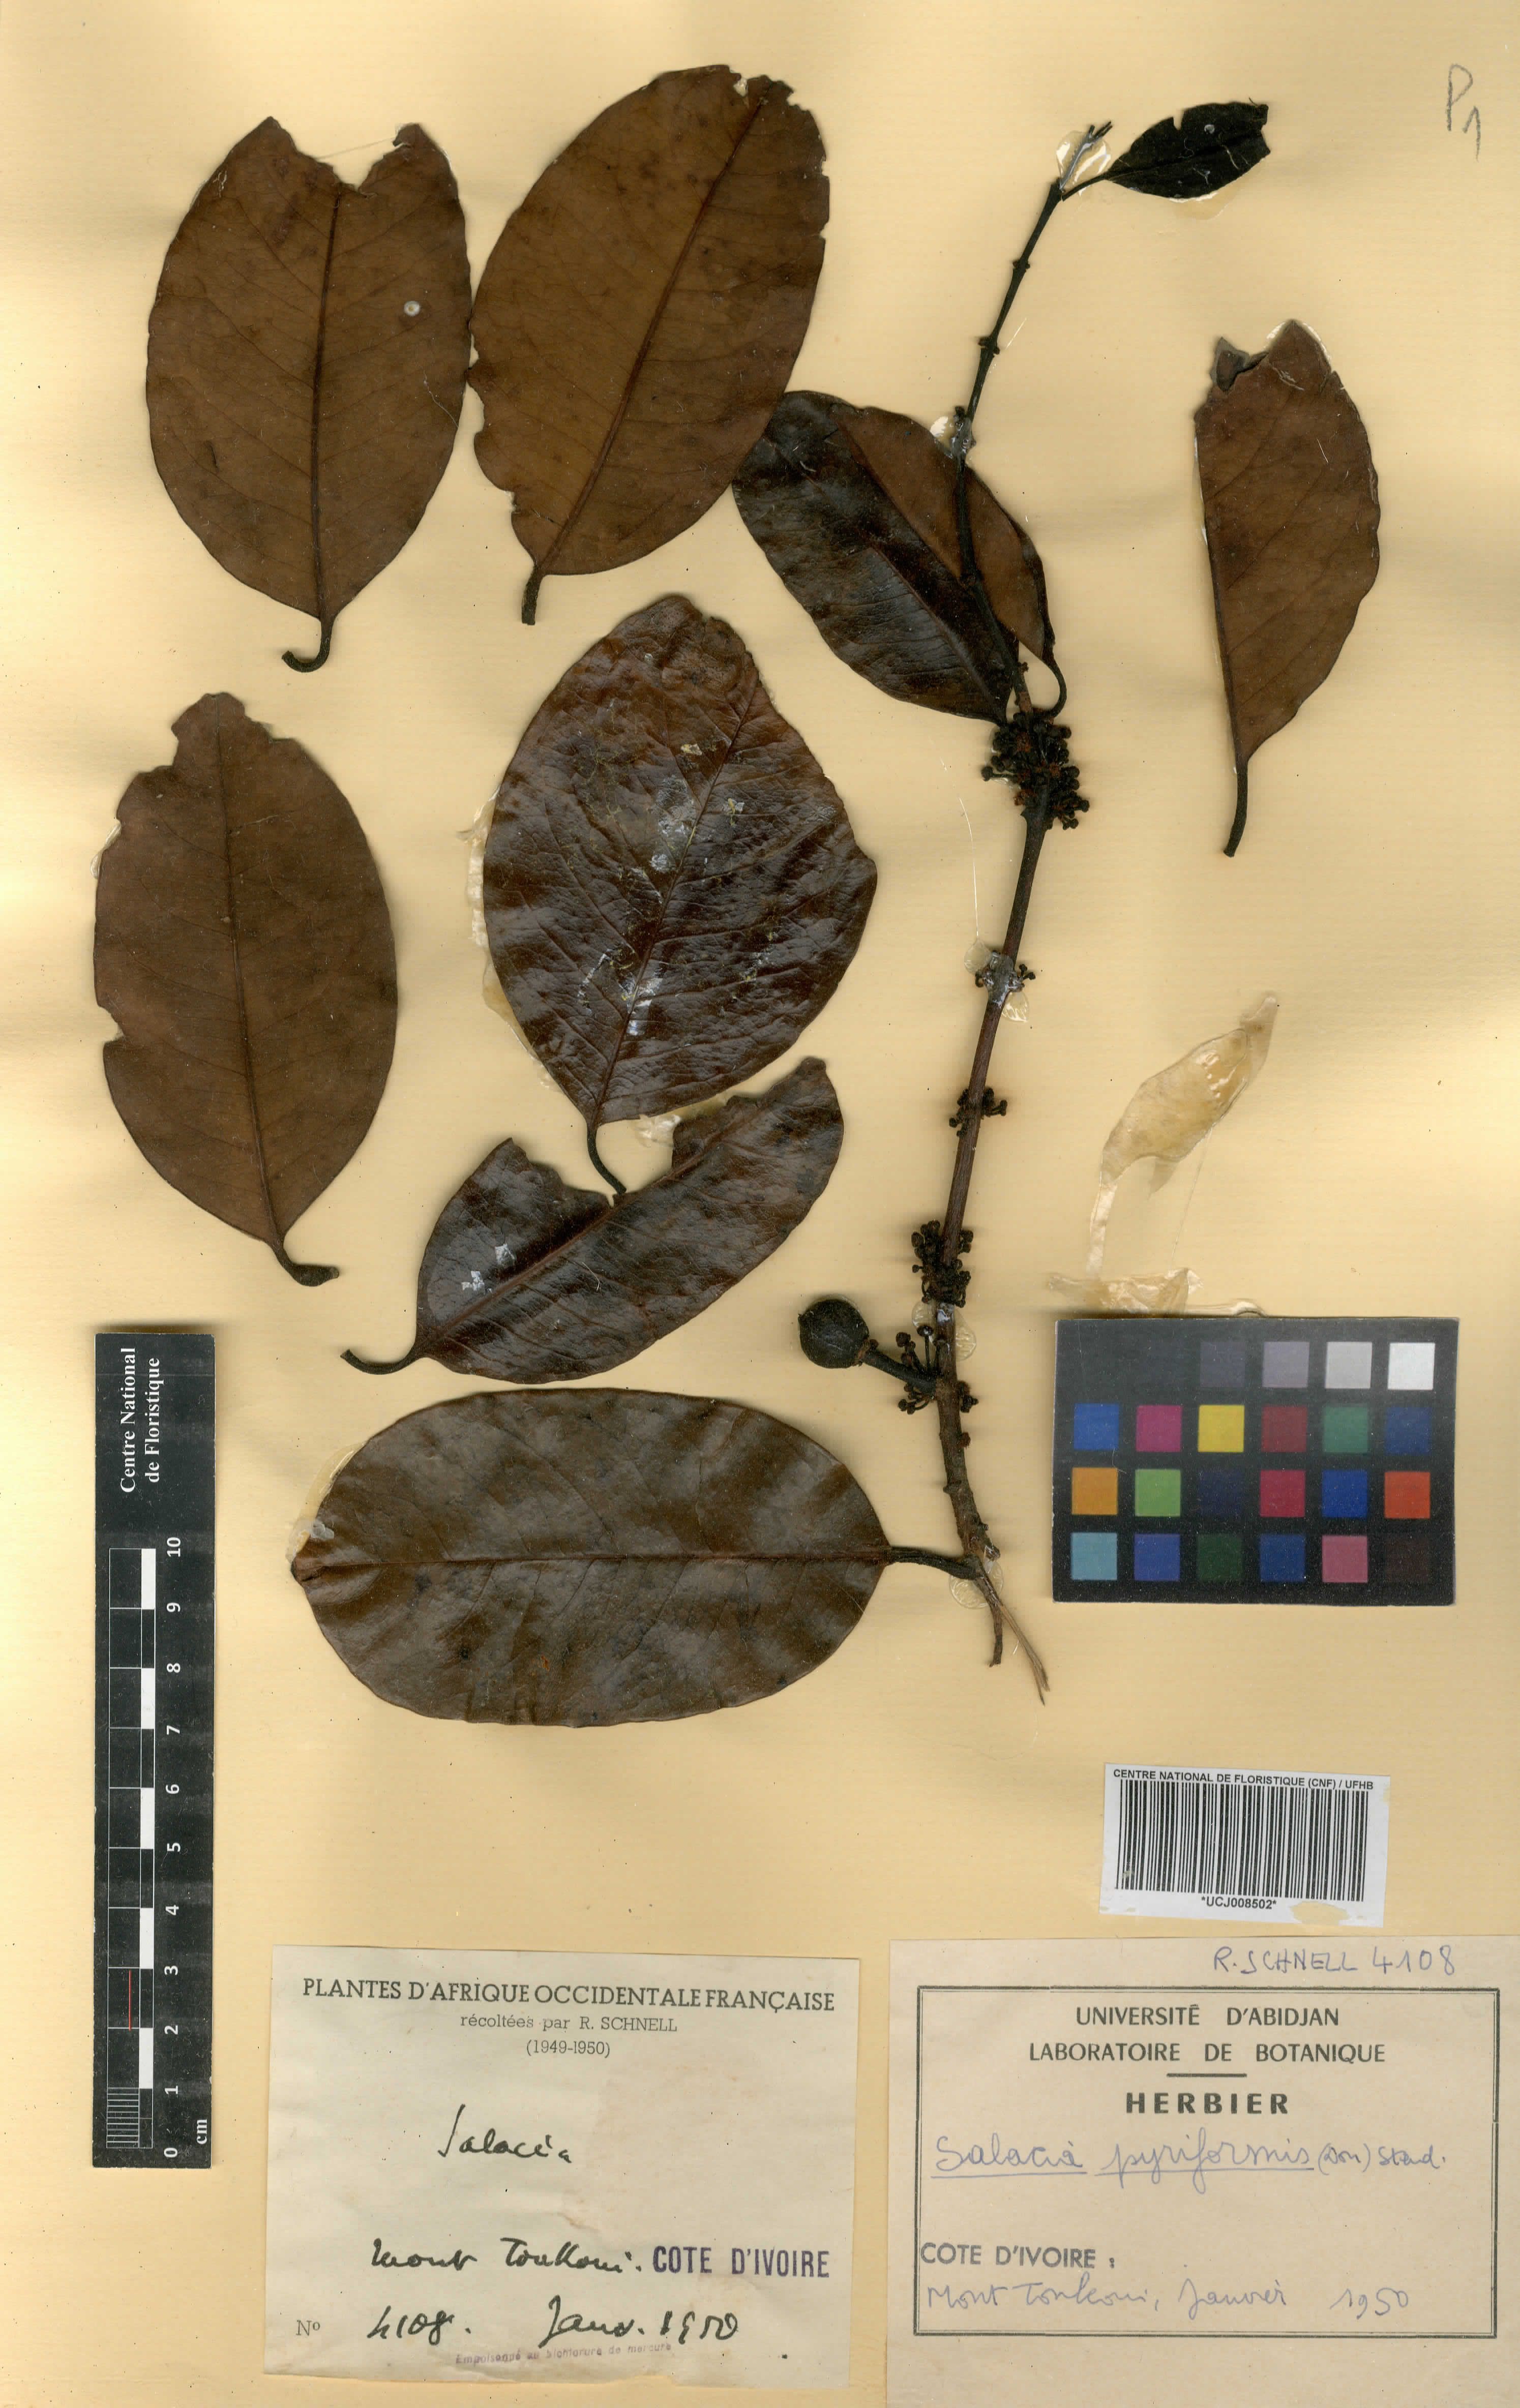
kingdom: Plantae
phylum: Tracheophyta
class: Magnoliopsida
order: Celastrales
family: Celastraceae
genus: Salacia
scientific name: Salacia pallescens
